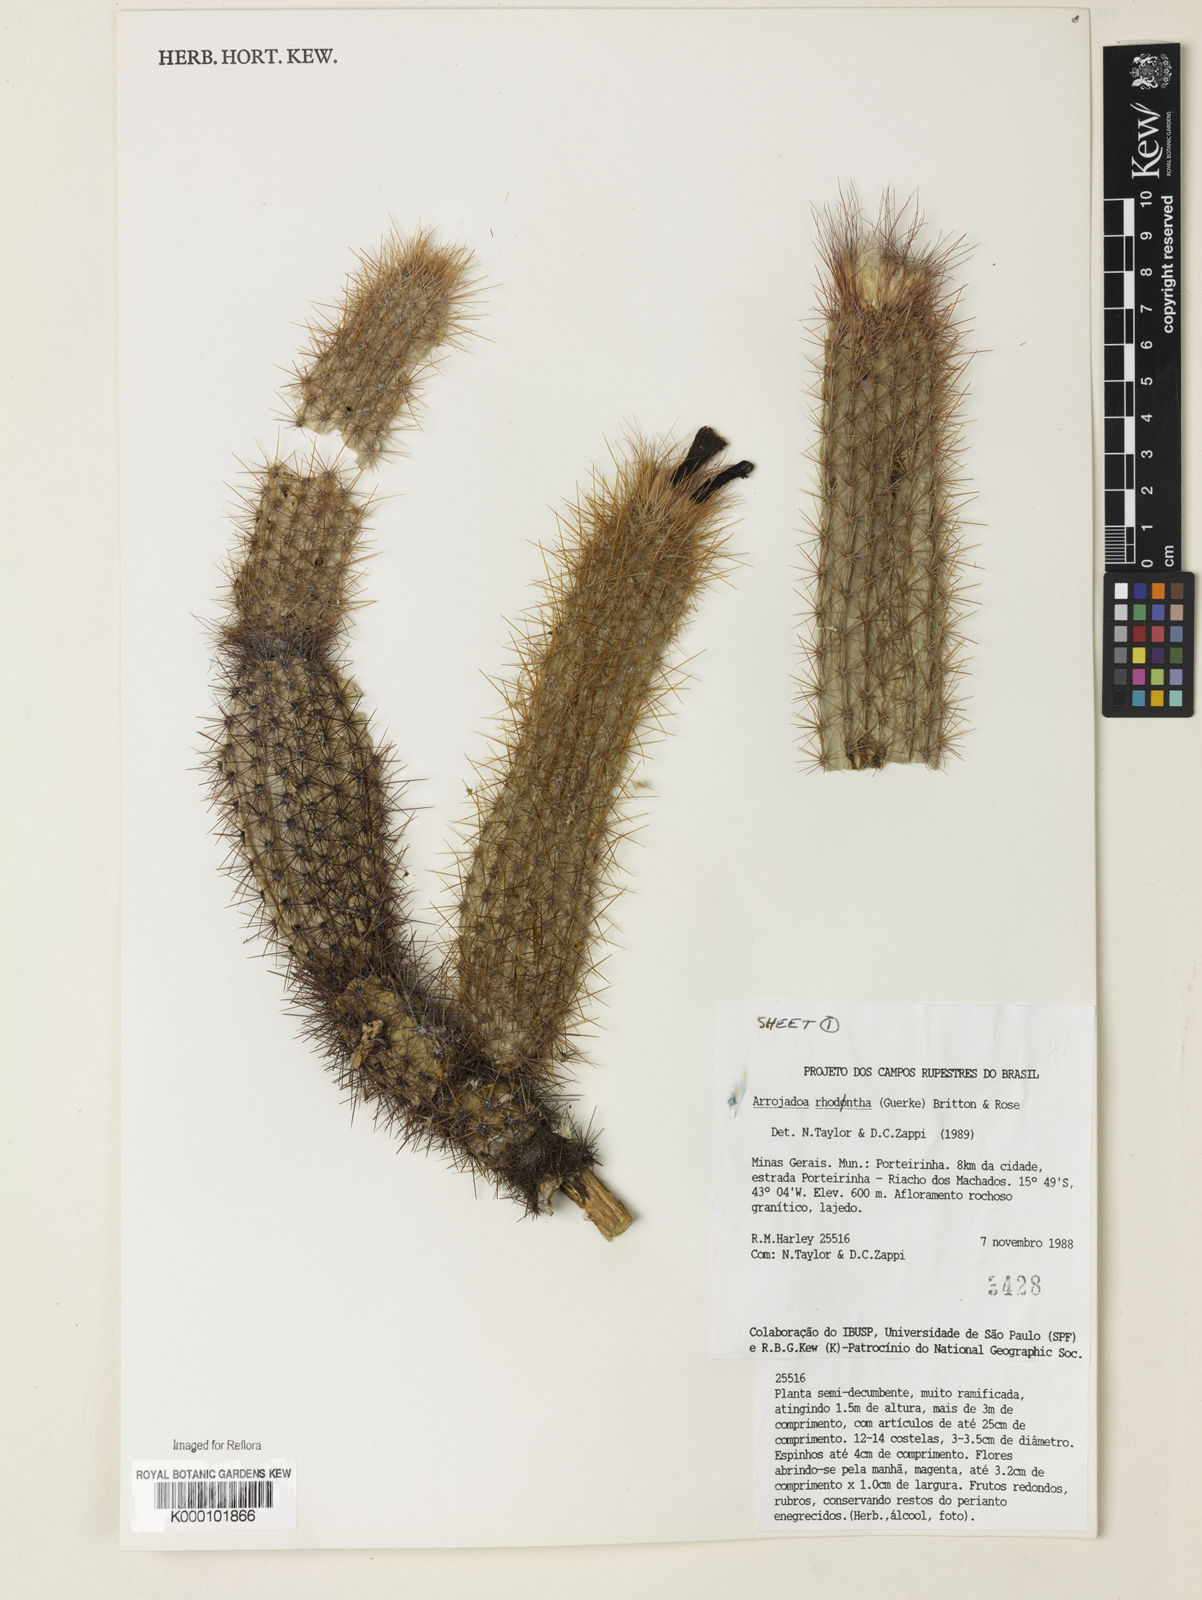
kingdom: Plantae
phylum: Tracheophyta
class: Magnoliopsida
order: Caryophyllales
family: Cactaceae
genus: Arrojadoa
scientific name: Arrojadoa
